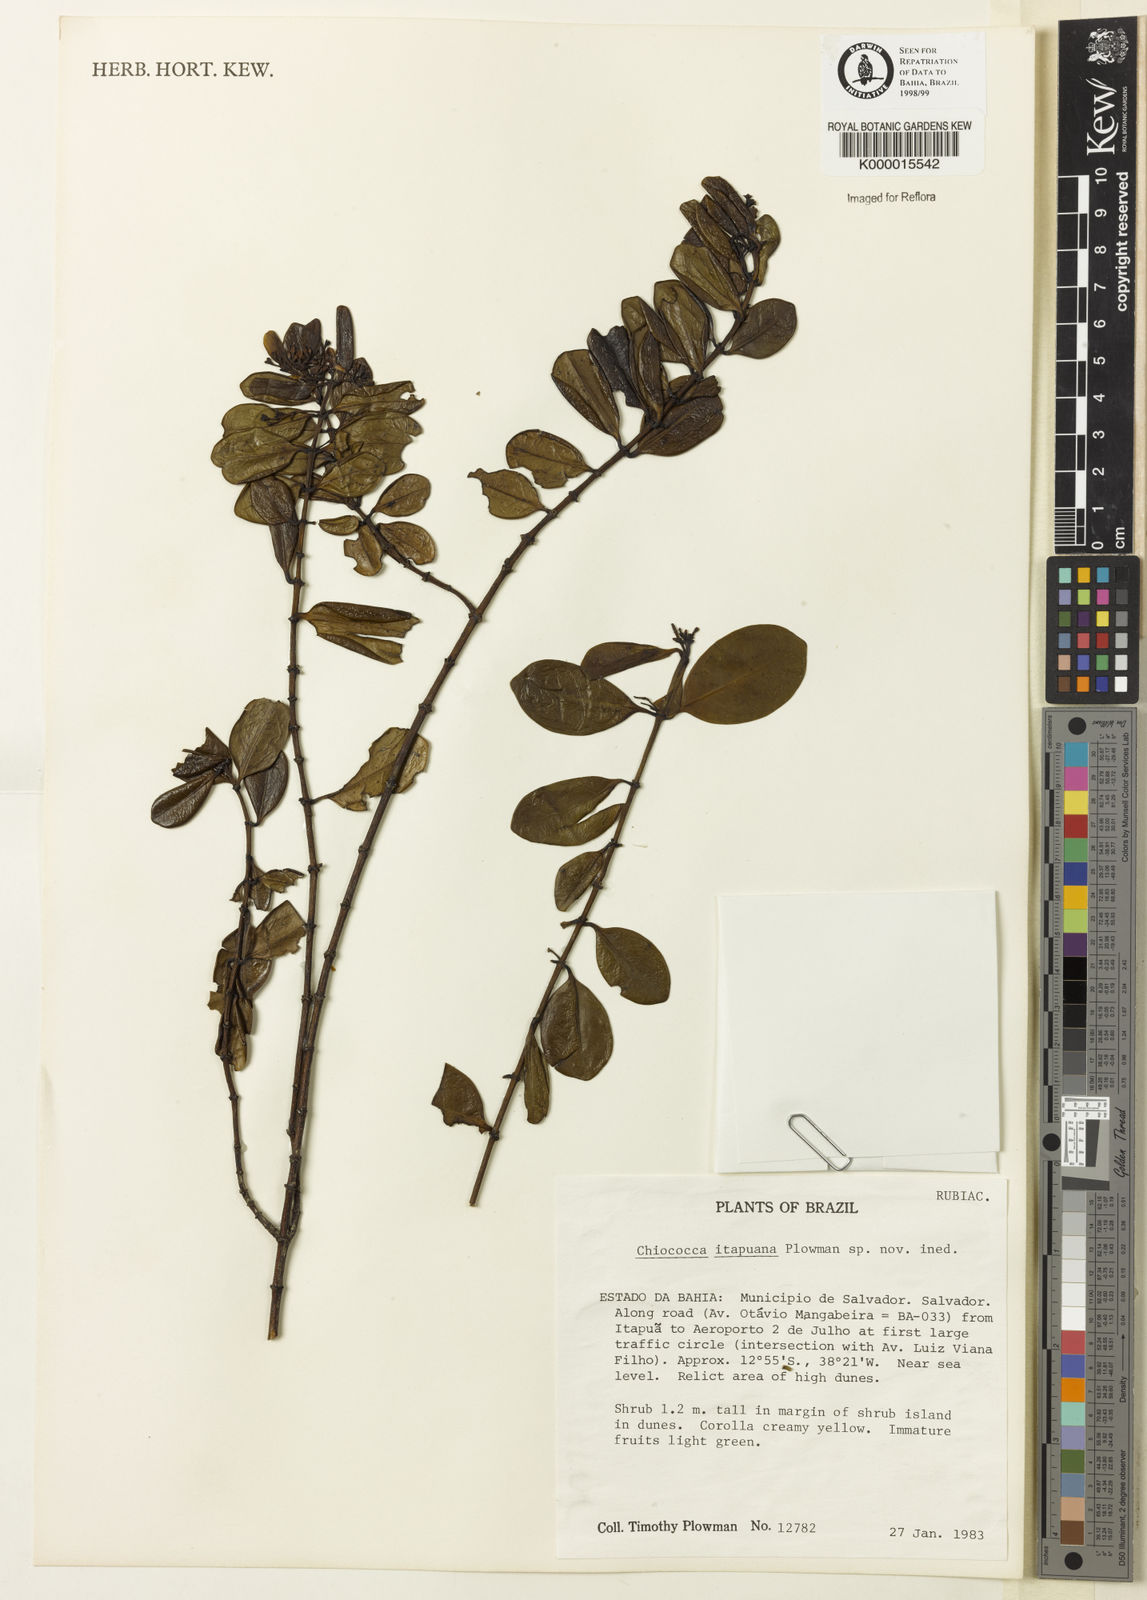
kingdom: Plantae
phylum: Tracheophyta
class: Magnoliopsida
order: Gentianales
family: Rubiaceae
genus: Chiococca
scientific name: Chiococca
